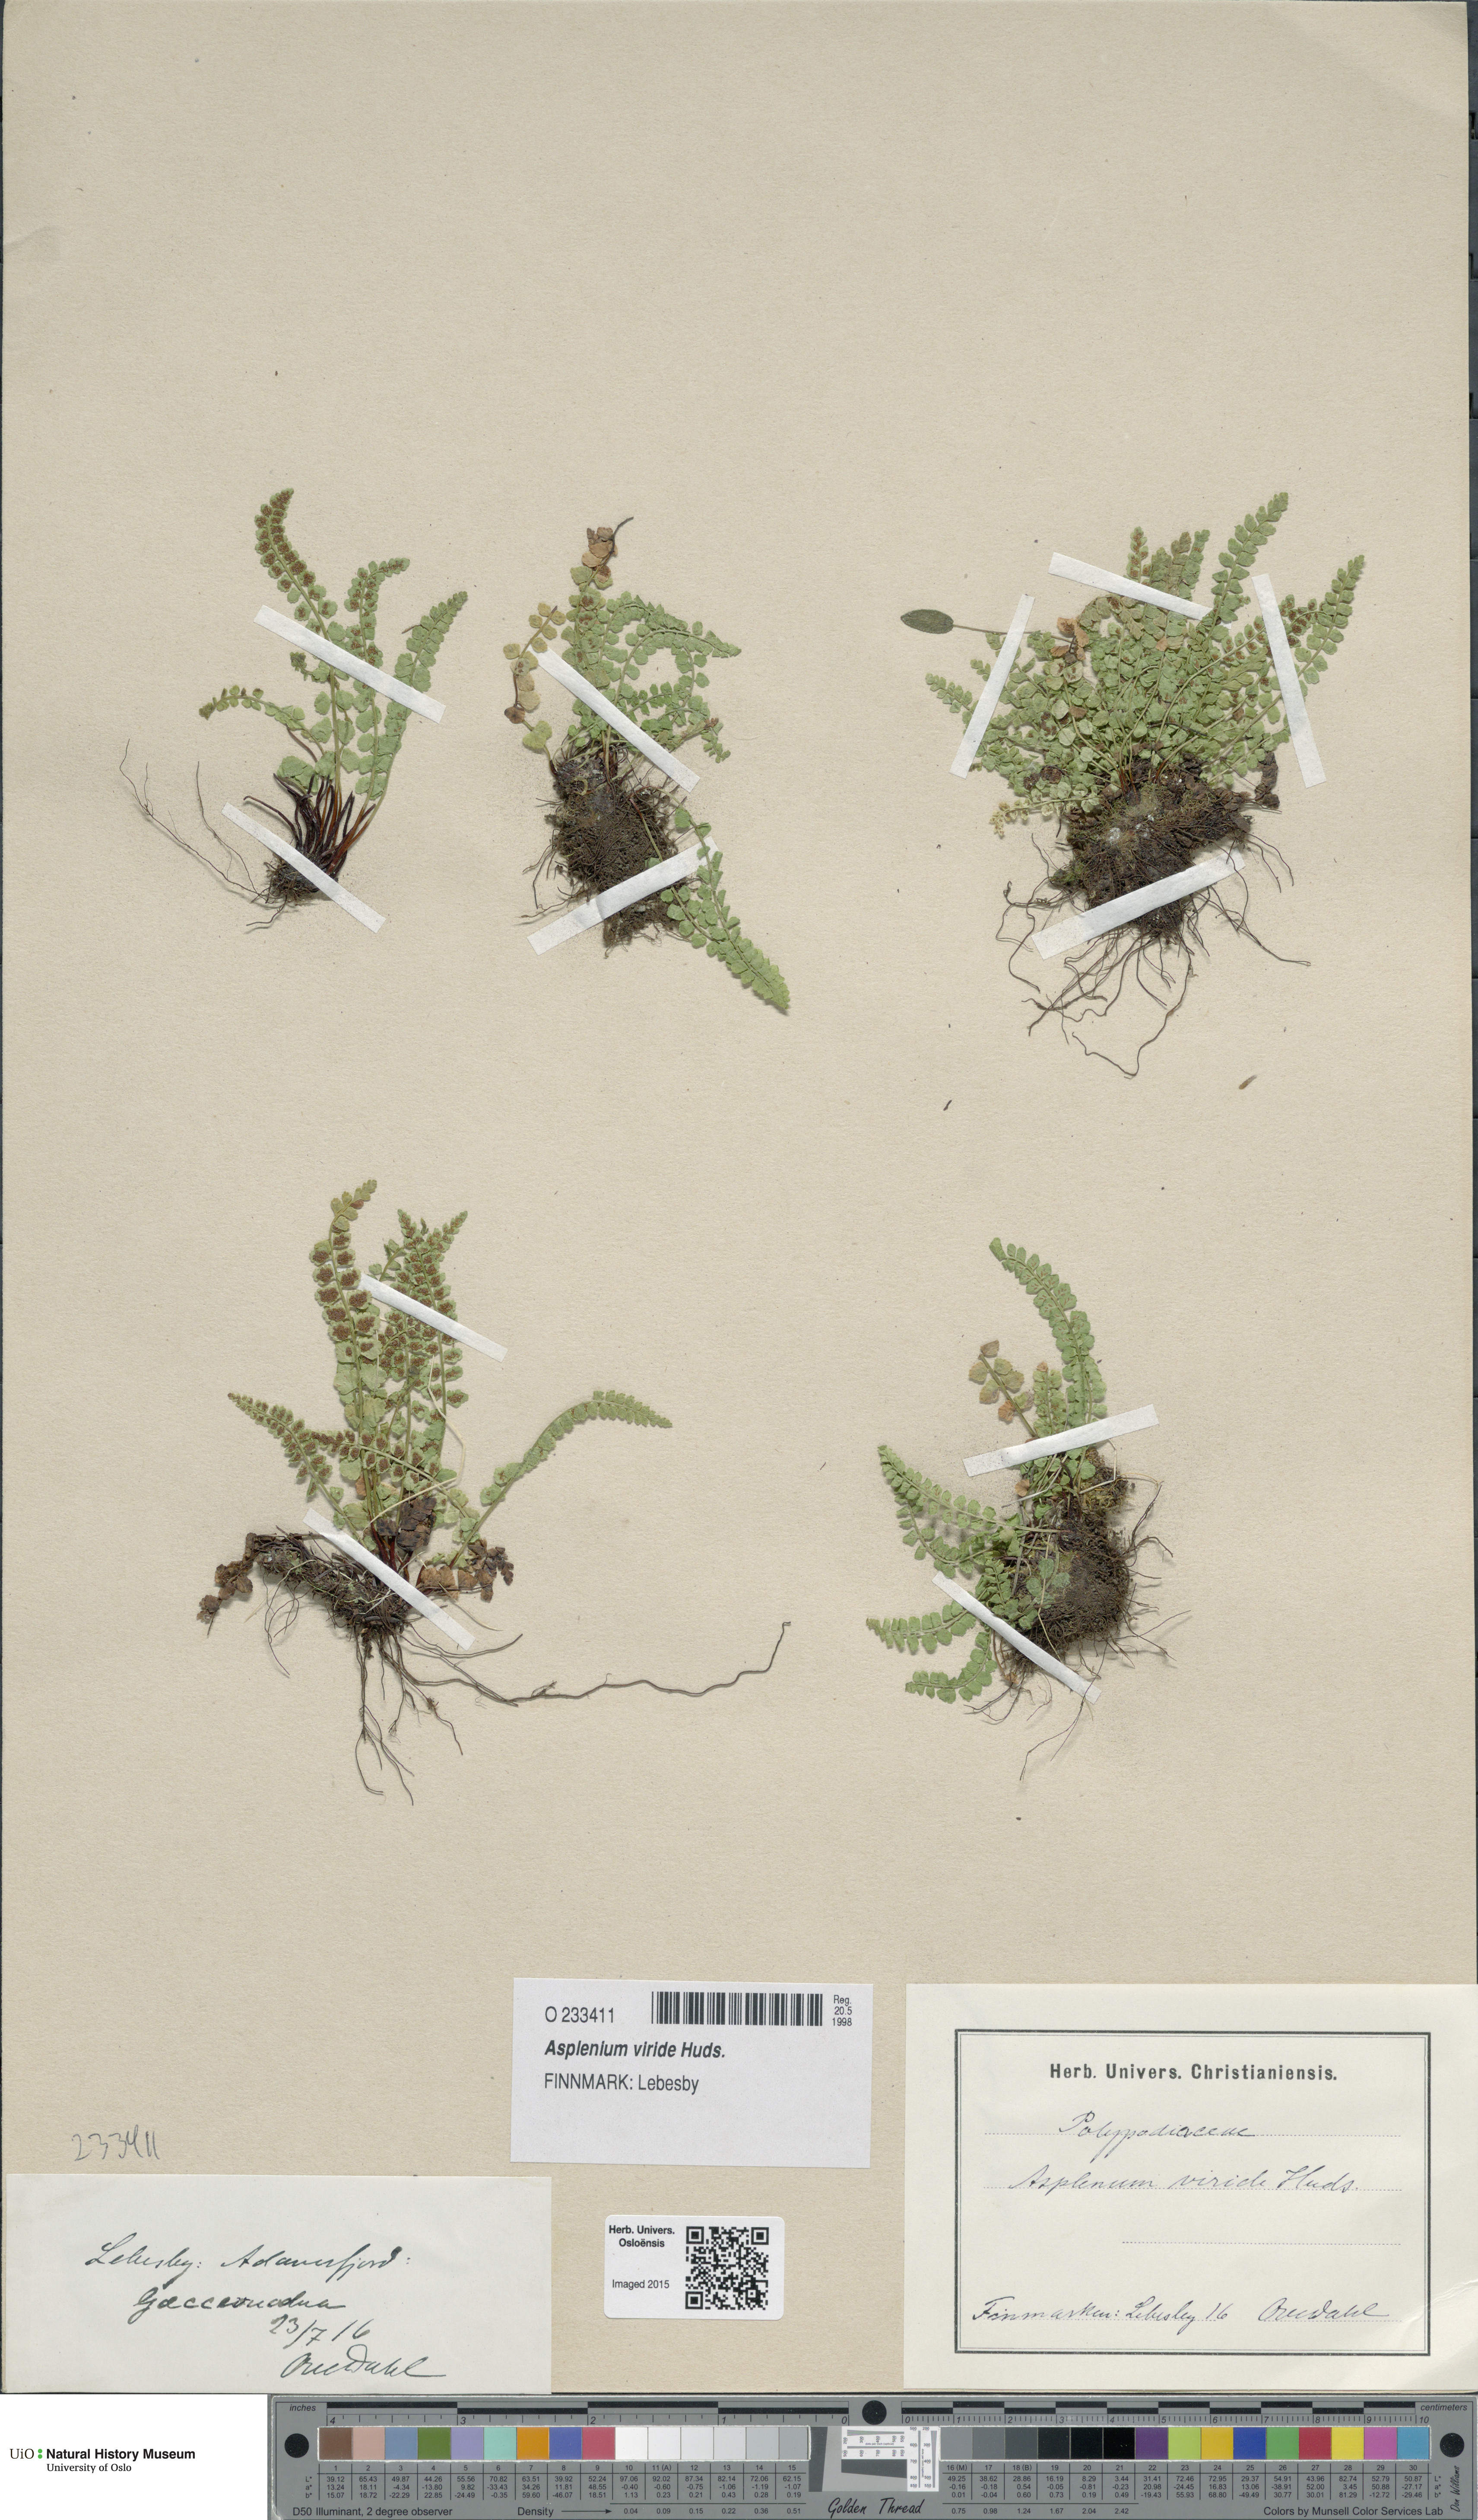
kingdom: Plantae
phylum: Tracheophyta
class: Polypodiopsida
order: Polypodiales
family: Aspleniaceae
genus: Asplenium
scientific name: Asplenium viride
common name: Green spleenwort
